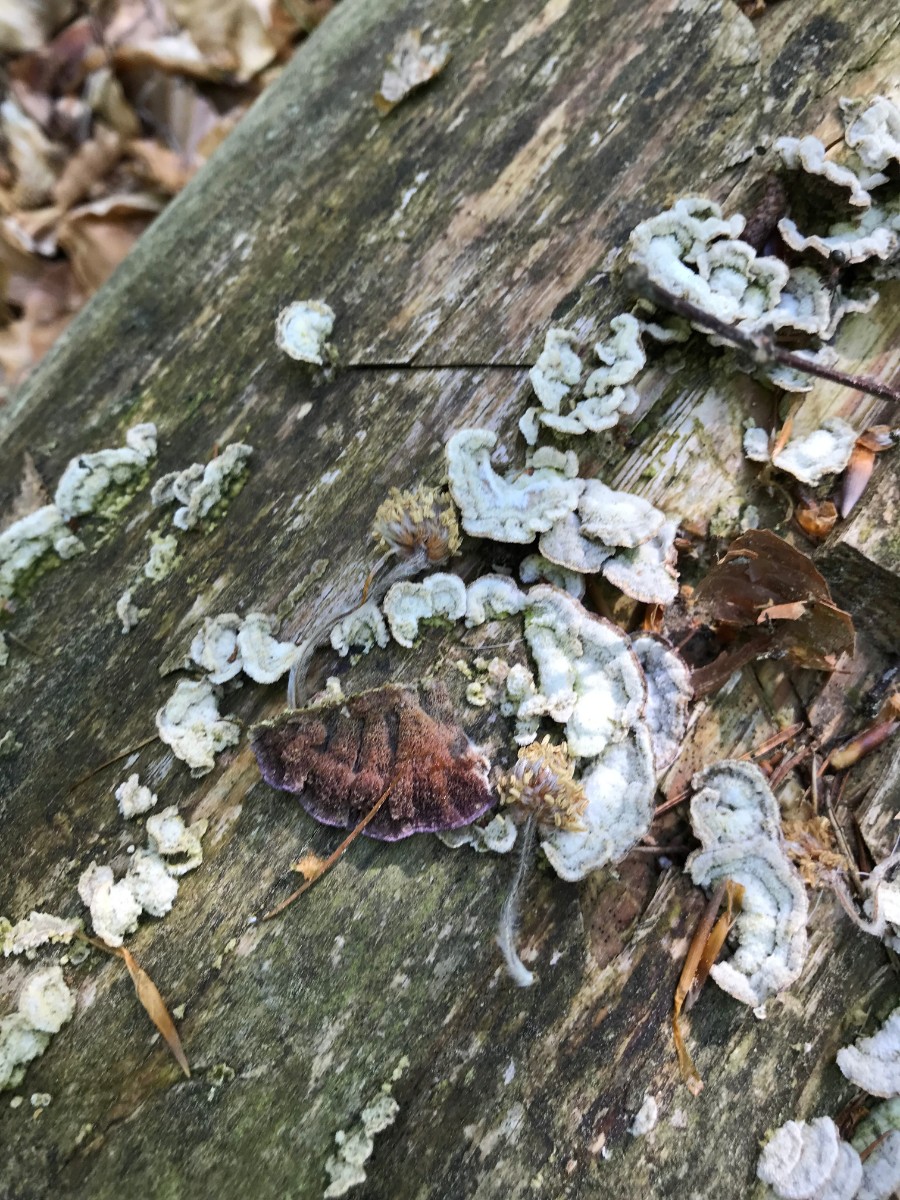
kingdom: Fungi
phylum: Basidiomycota
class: Agaricomycetes
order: Hymenochaetales
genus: Trichaptum
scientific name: Trichaptum abietinum
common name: almindelig violporesvamp
